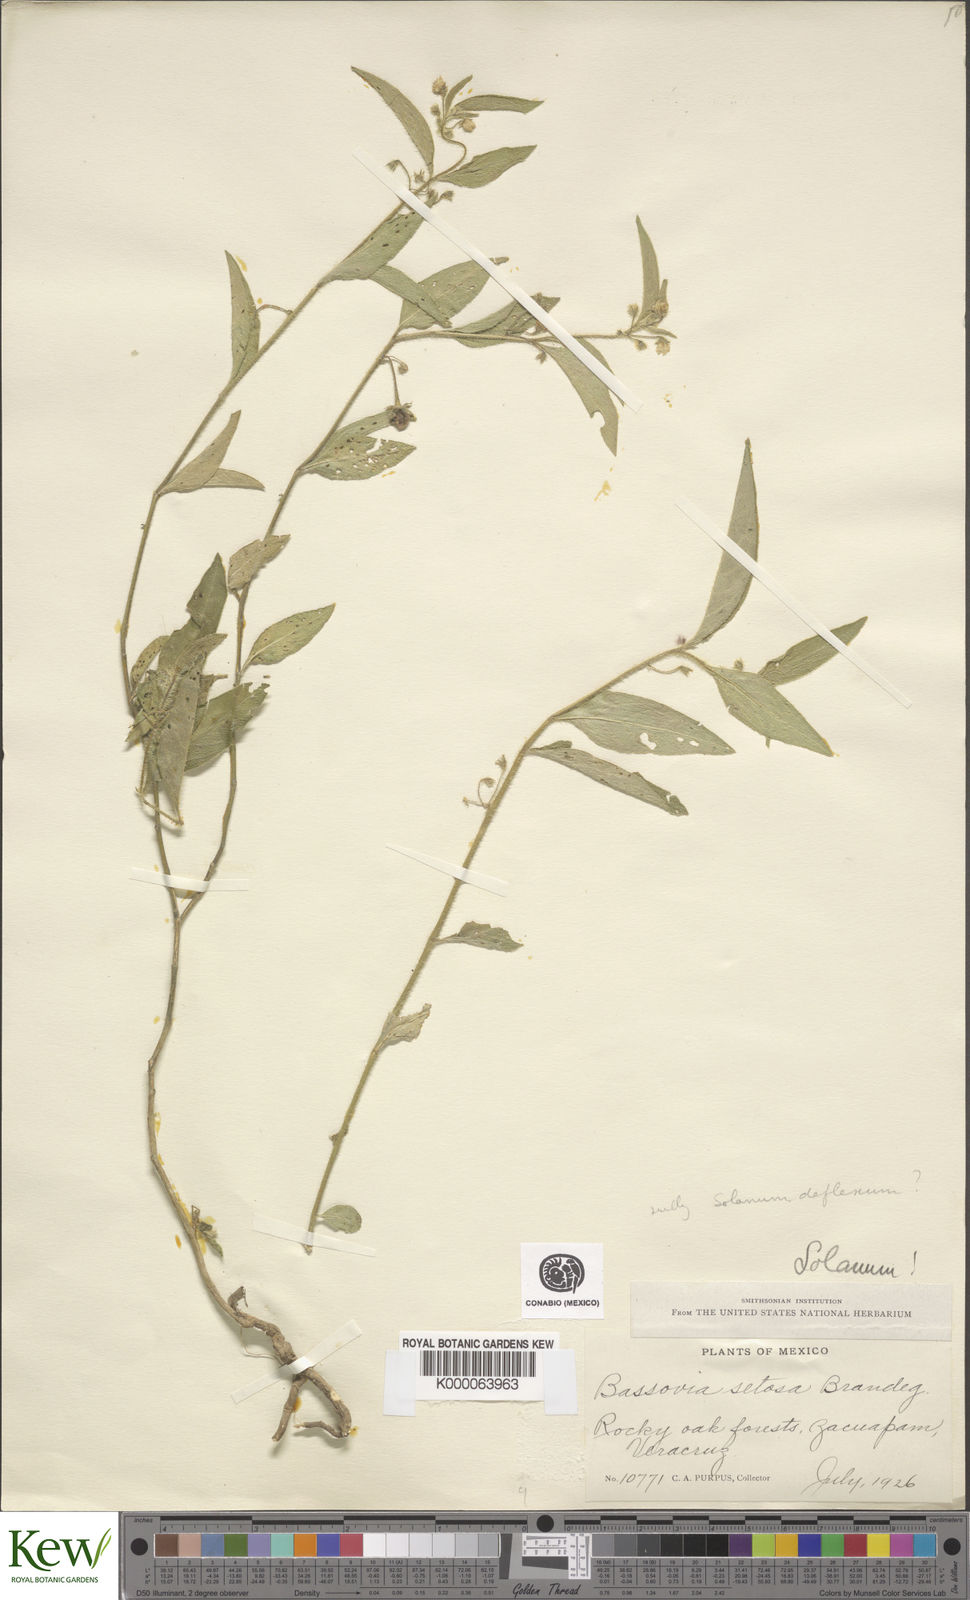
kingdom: Plantae
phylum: Tracheophyta
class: Magnoliopsida
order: Solanales
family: Solanaceae
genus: Solanum
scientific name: Solanum
